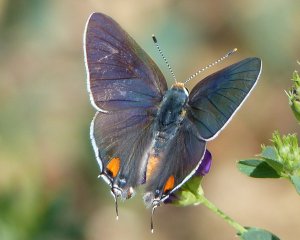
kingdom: Animalia
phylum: Arthropoda
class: Insecta
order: Lepidoptera
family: Lycaenidae
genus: Strymon
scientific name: Strymon melinus
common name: Gray Hairstreak
